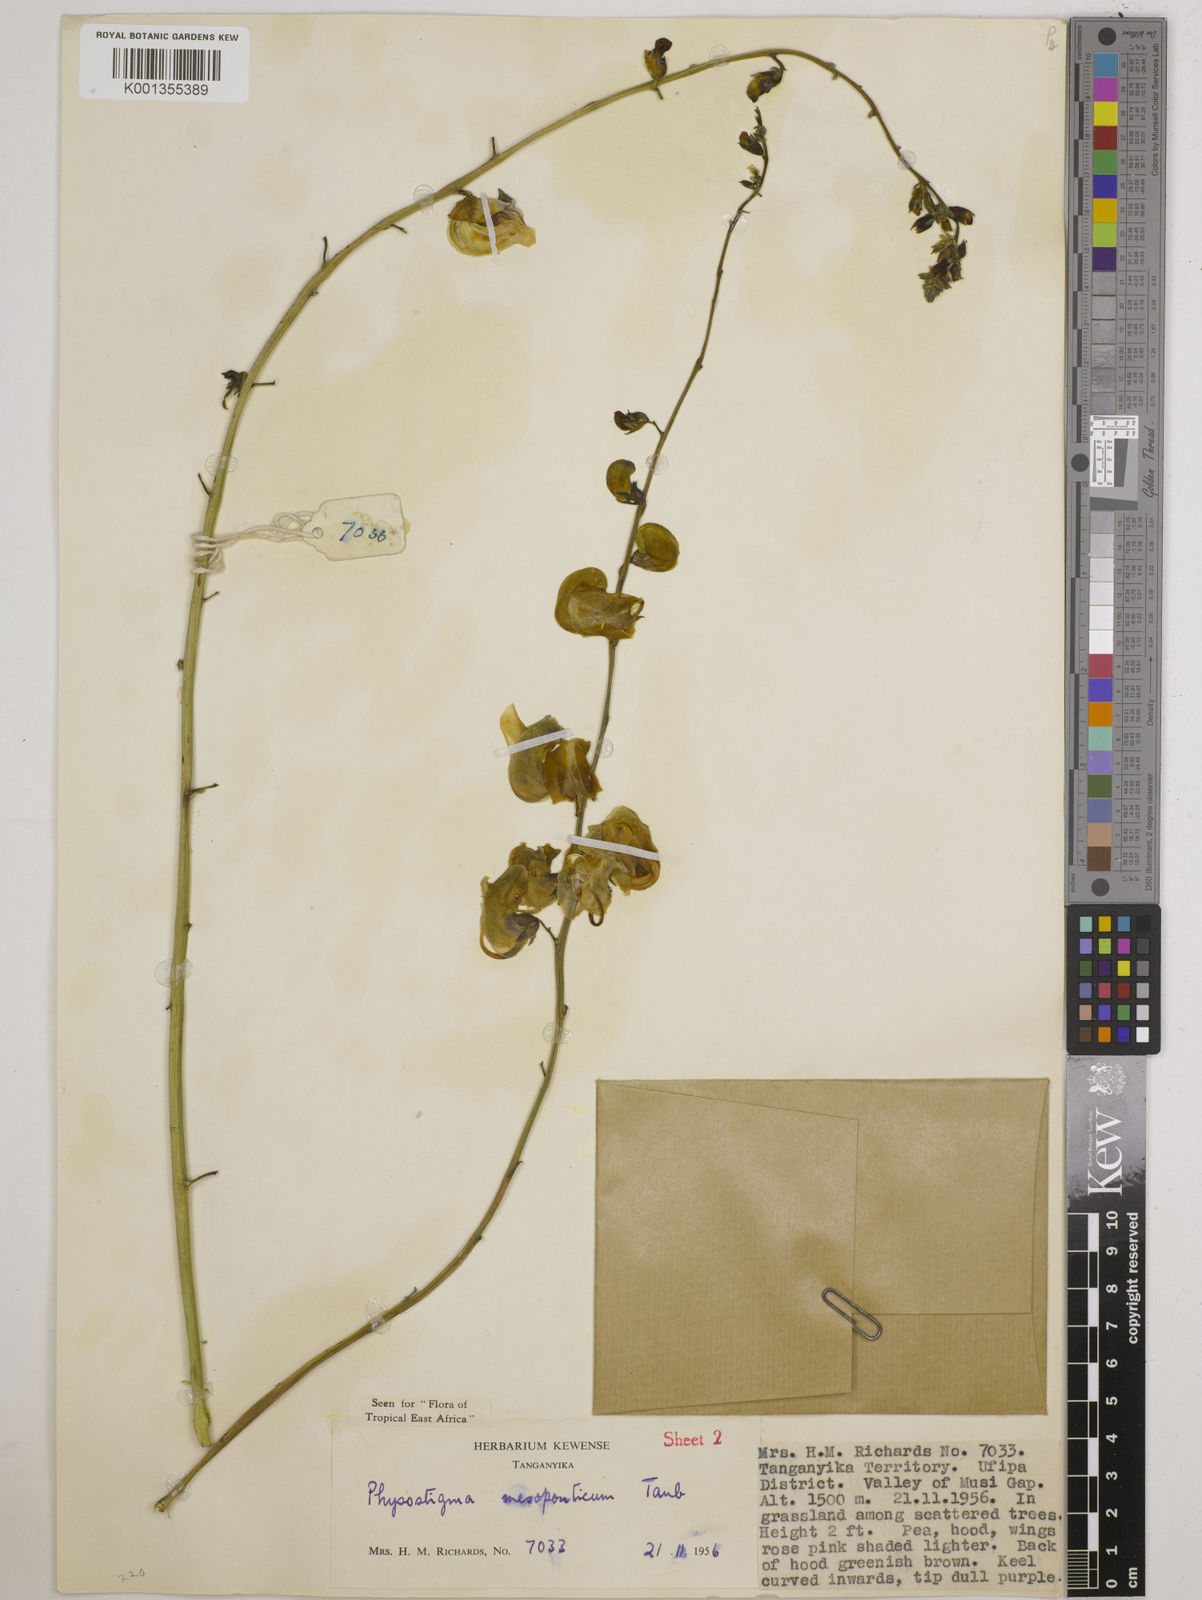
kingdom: Plantae
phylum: Tracheophyta
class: Magnoliopsida
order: Fabales
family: Fabaceae
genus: Physostigma
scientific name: Physostigma mesoponticum
